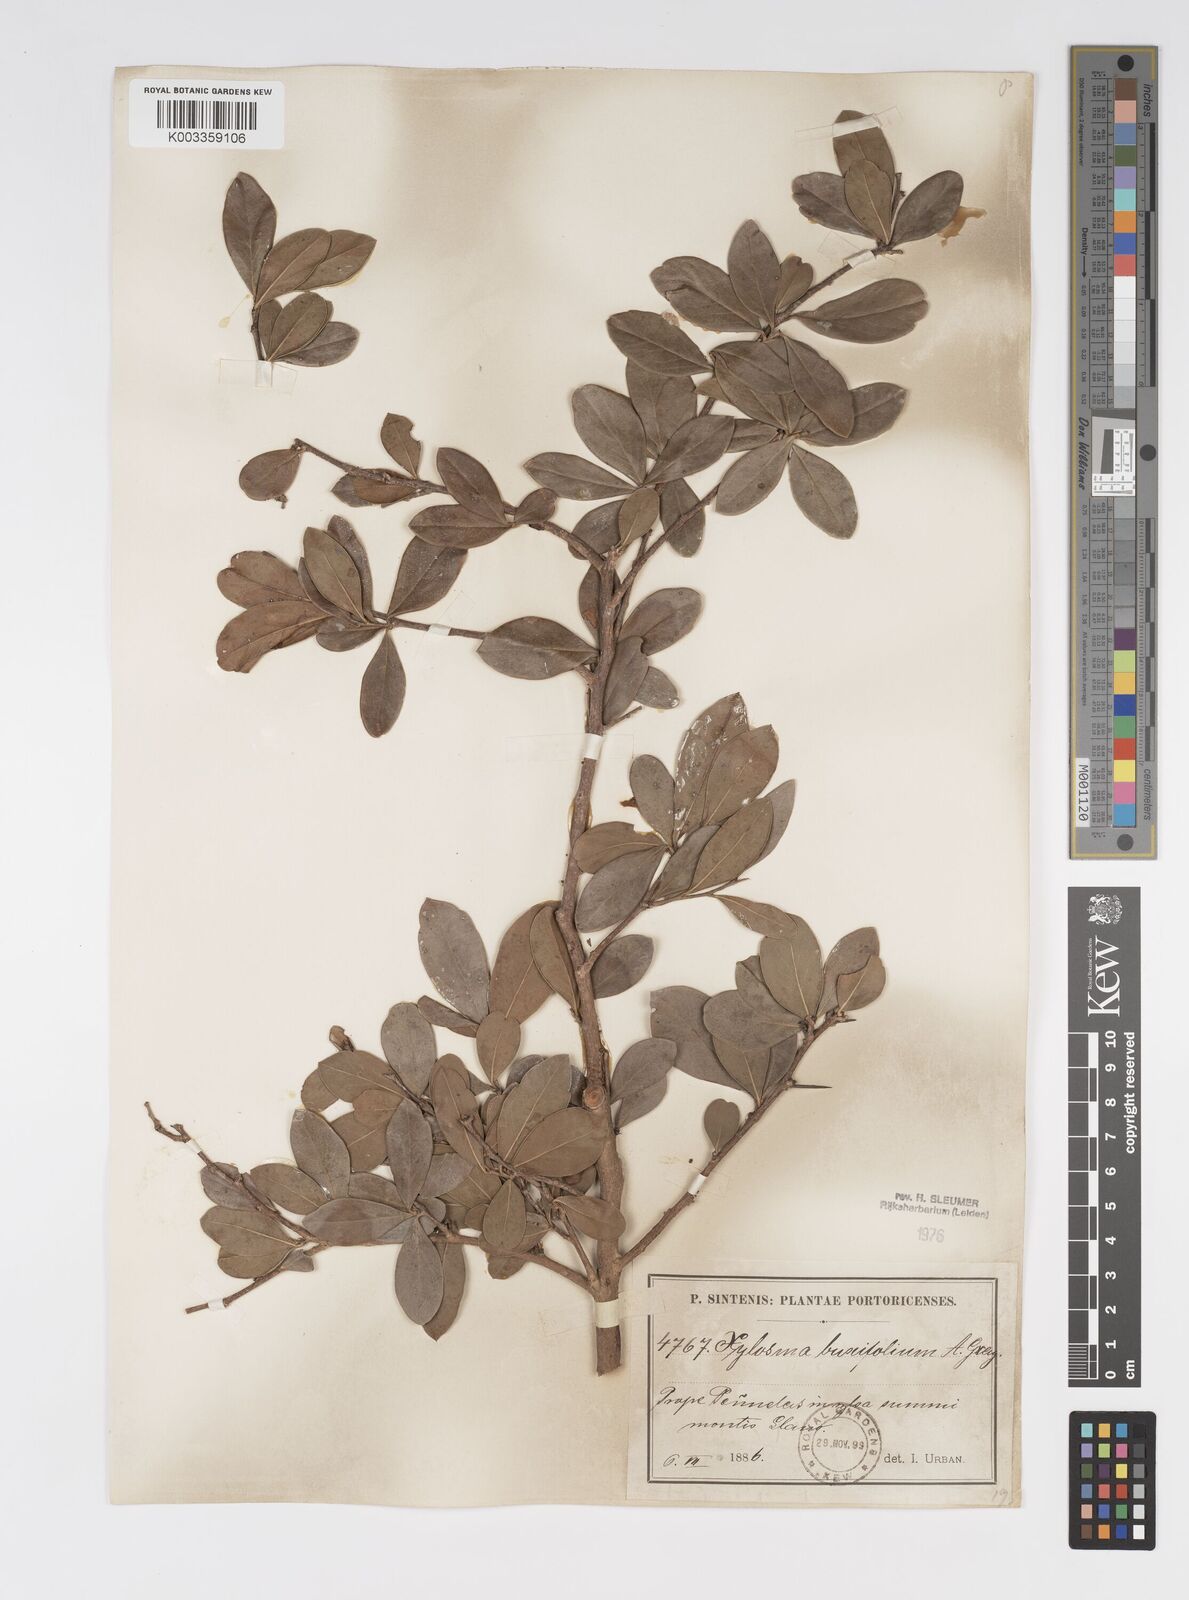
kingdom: Plantae
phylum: Tracheophyta
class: Magnoliopsida
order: Malpighiales
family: Salicaceae
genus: Xylosma
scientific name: Xylosma buxifolia
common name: Cockspur
